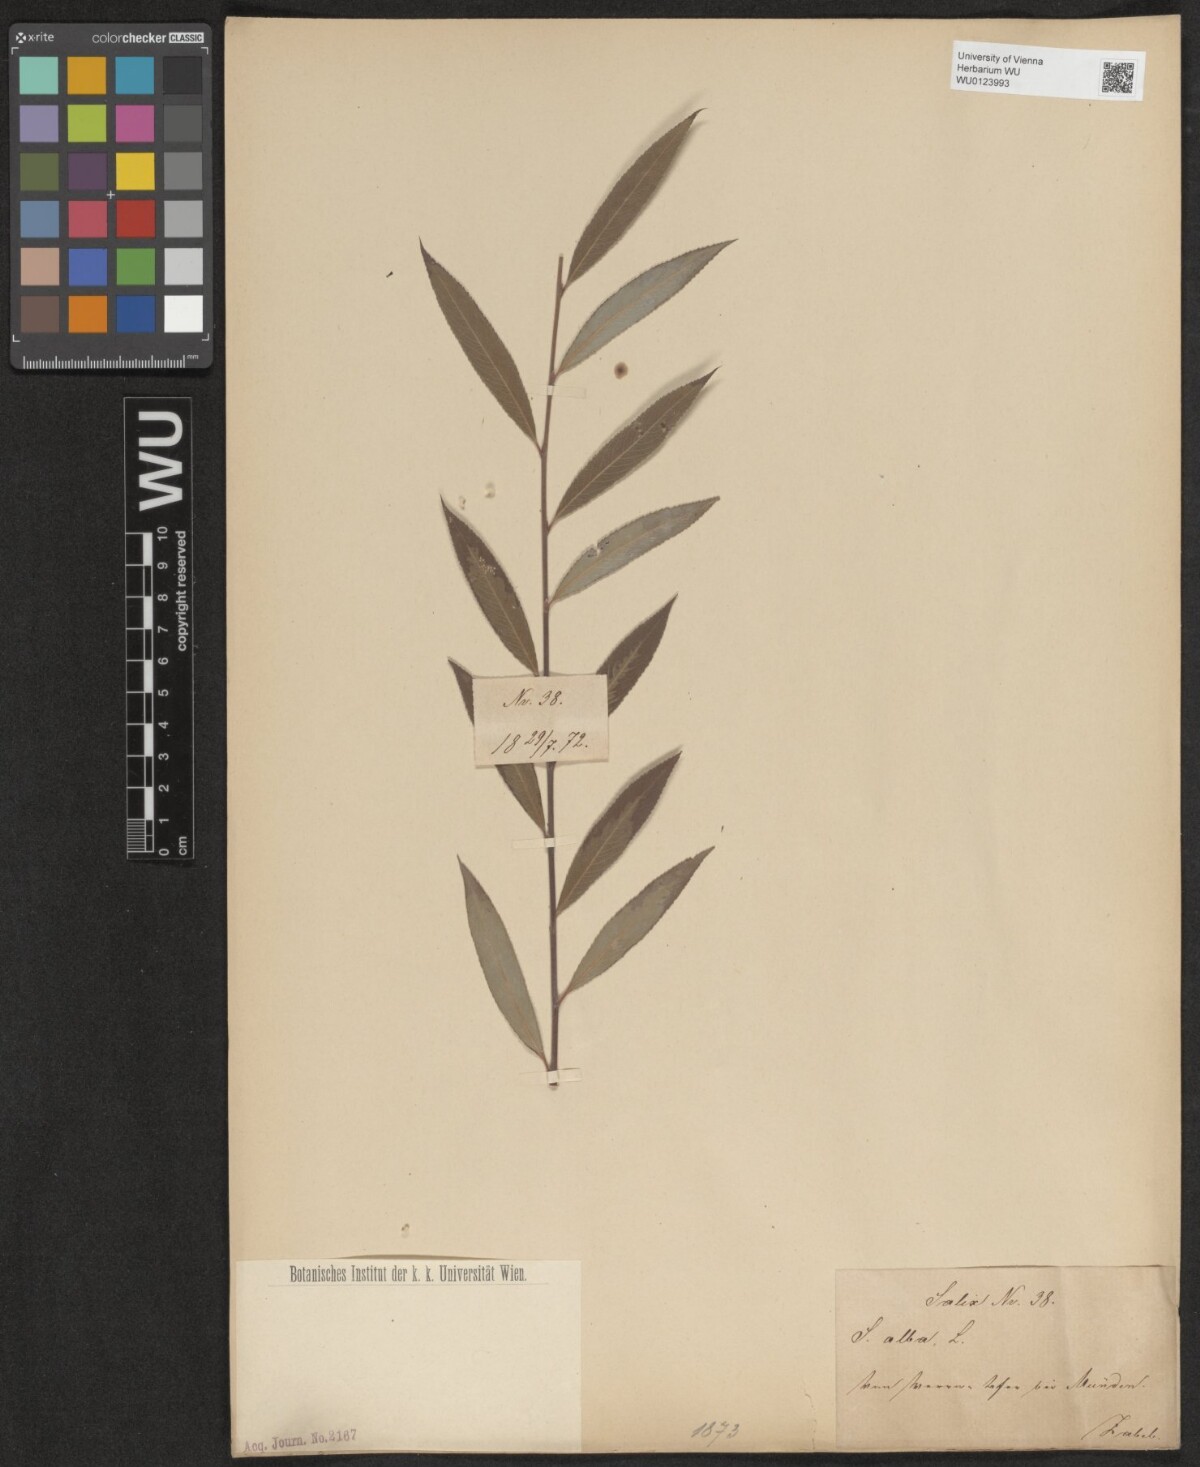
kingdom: Plantae
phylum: Tracheophyta
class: Magnoliopsida
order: Malpighiales
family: Salicaceae
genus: Salix
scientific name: Salix alba
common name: White willow
